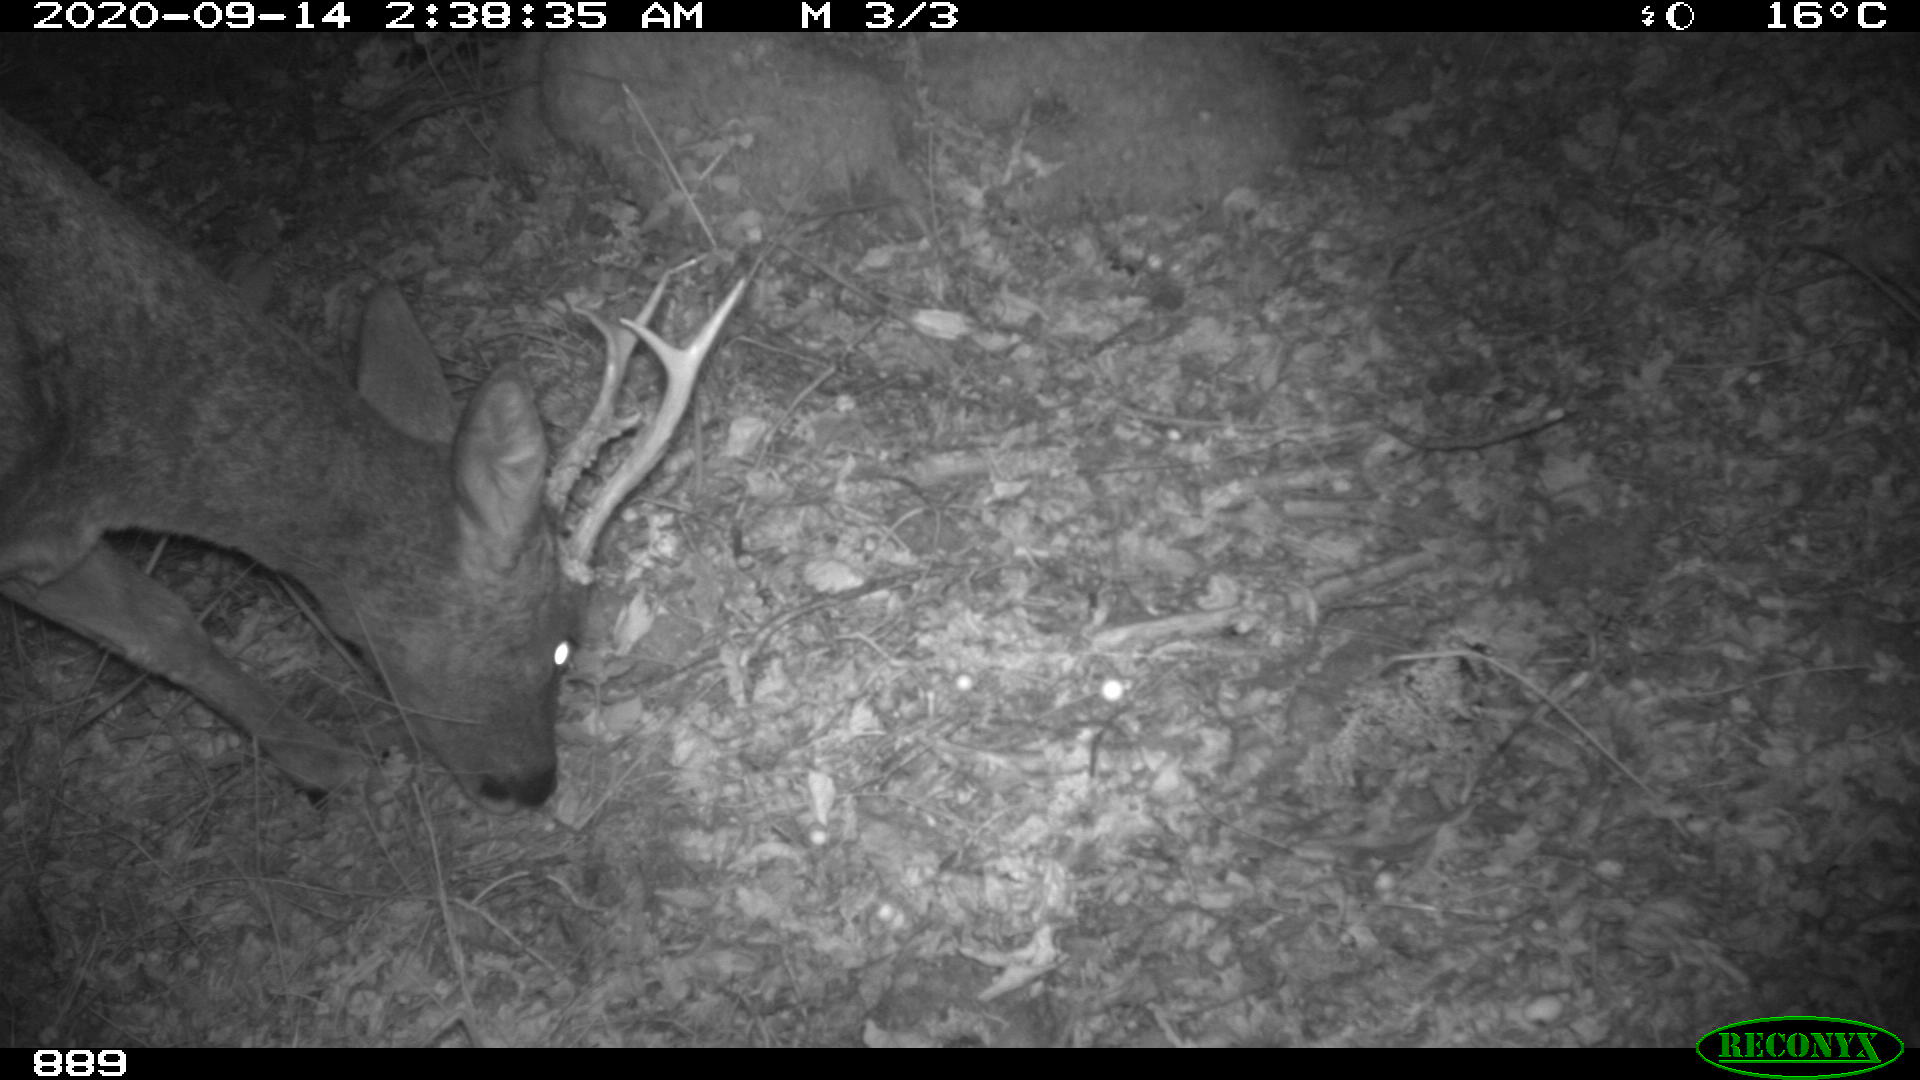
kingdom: Animalia
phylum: Chordata
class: Mammalia
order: Artiodactyla
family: Cervidae
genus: Capreolus
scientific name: Capreolus capreolus
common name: Western roe deer
